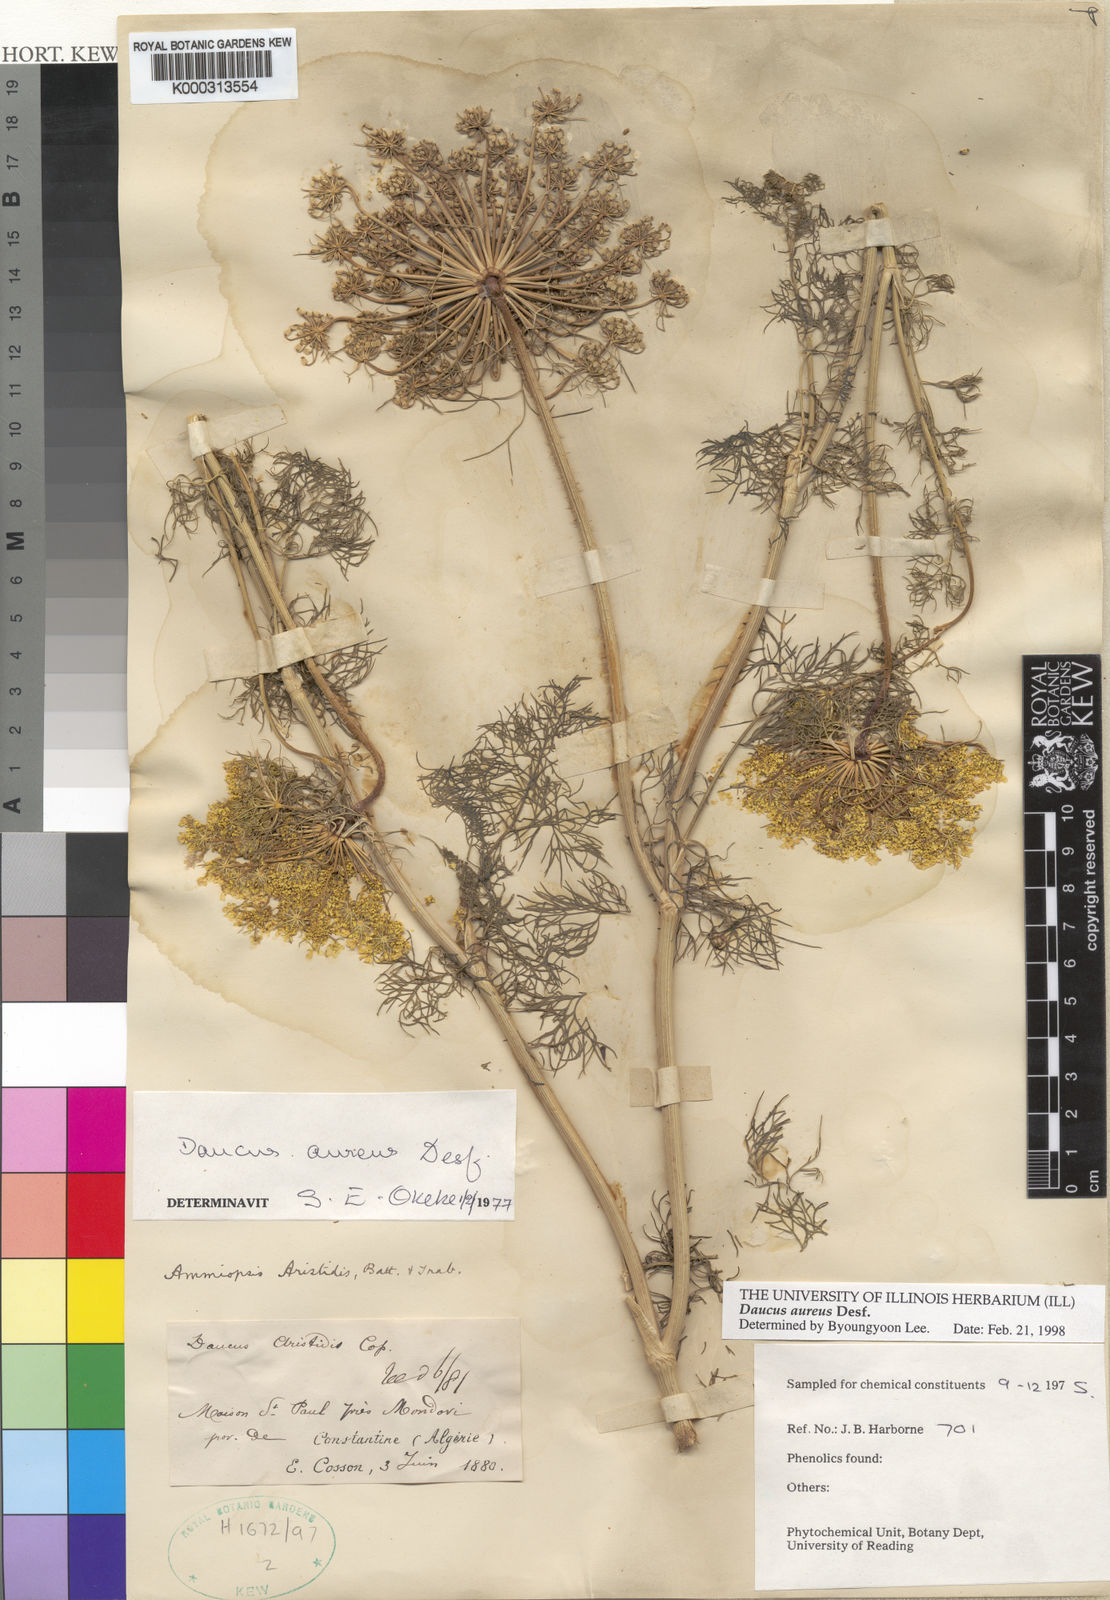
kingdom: Plantae
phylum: Tracheophyta
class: Magnoliopsida
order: Apiales
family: Apiaceae
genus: Daucus
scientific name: Daucus aureus
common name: Golden carrot
